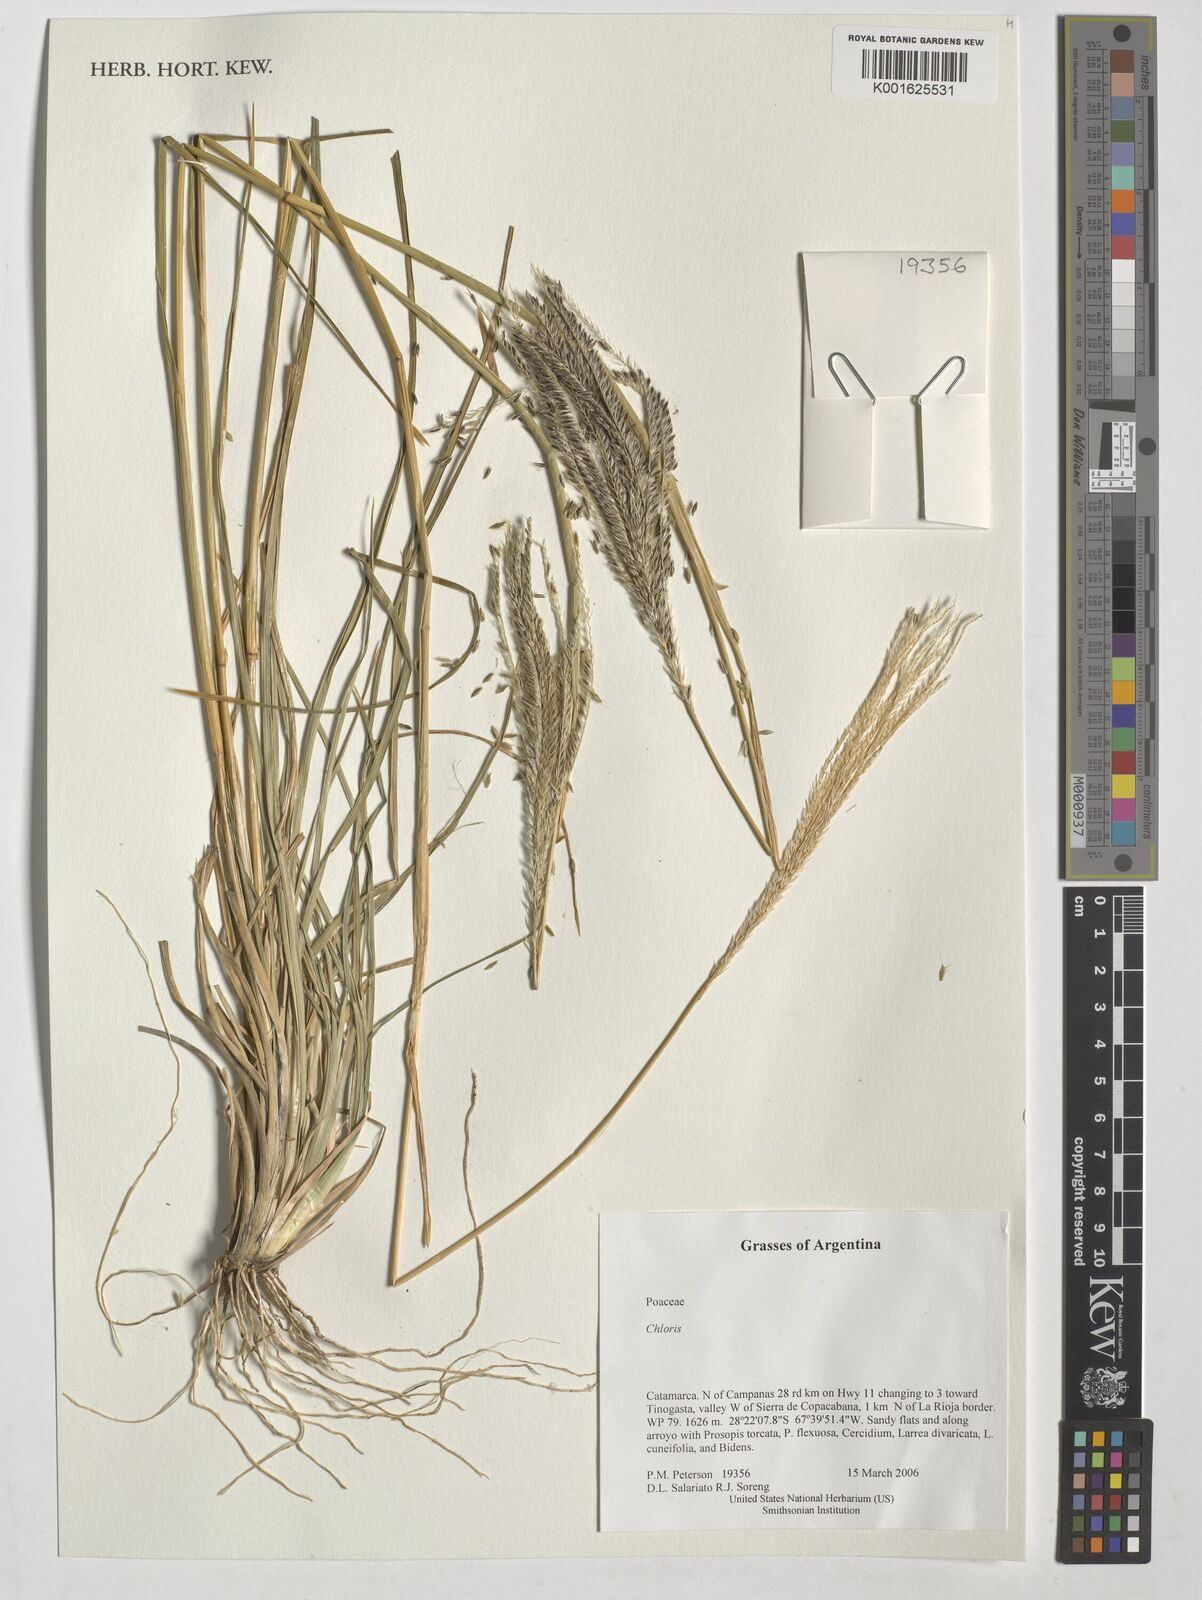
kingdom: Plantae
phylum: Tracheophyta
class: Liliopsida
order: Poales
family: Poaceae
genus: Chloris
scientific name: Chloris
